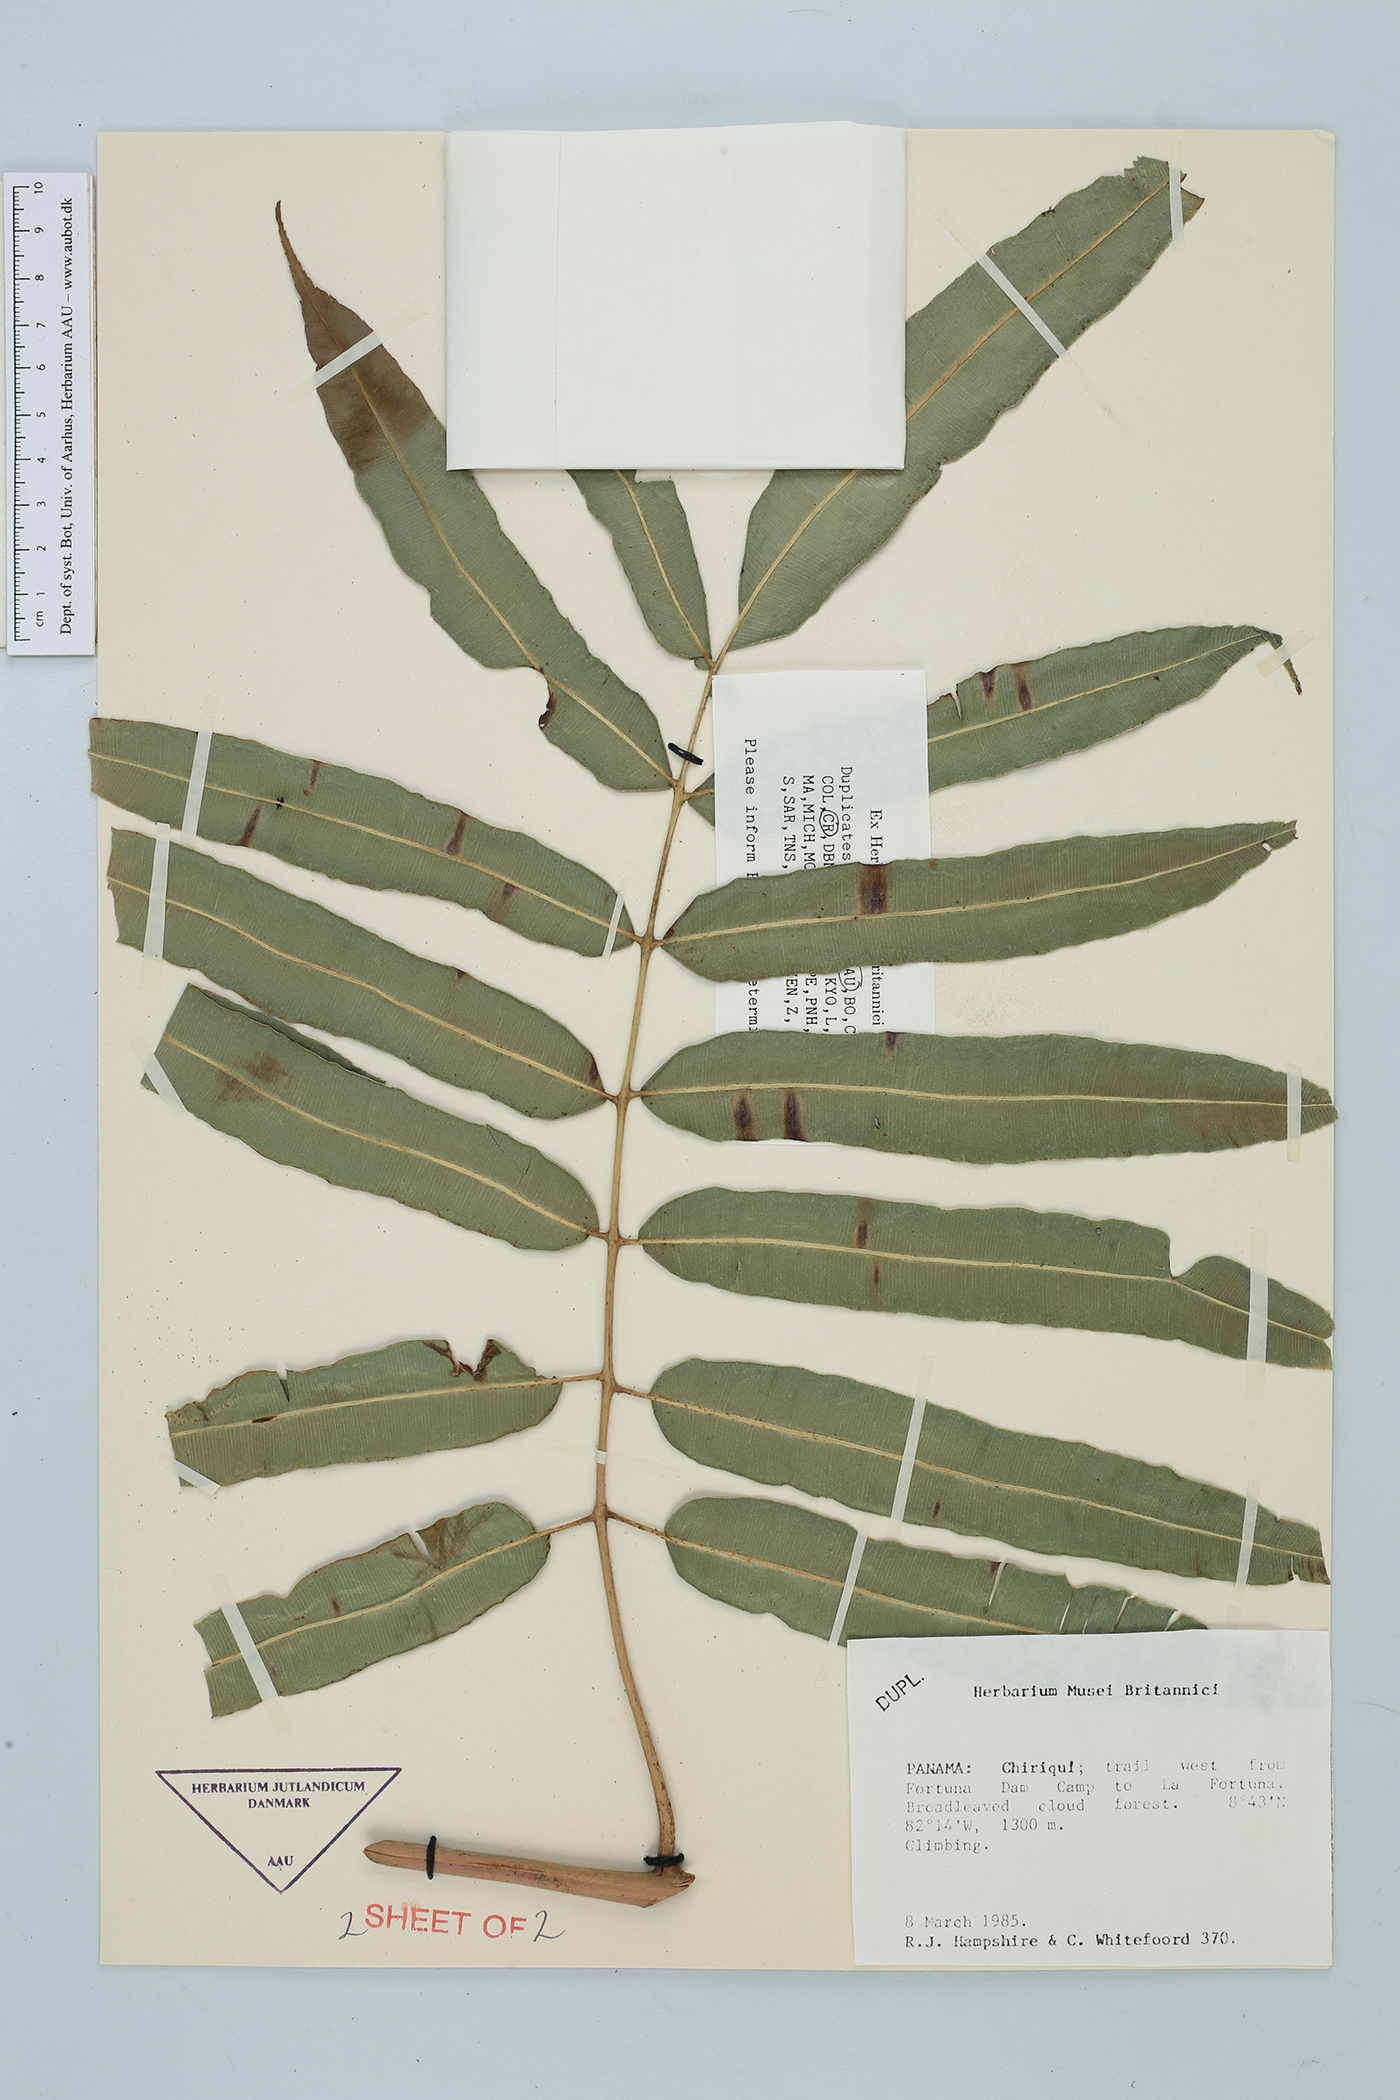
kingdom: Plantae
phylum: Tracheophyta
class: Polypodiopsida
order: Polypodiales
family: Blechnaceae
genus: Salpichlaena
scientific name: Salpichlaena volubilis
